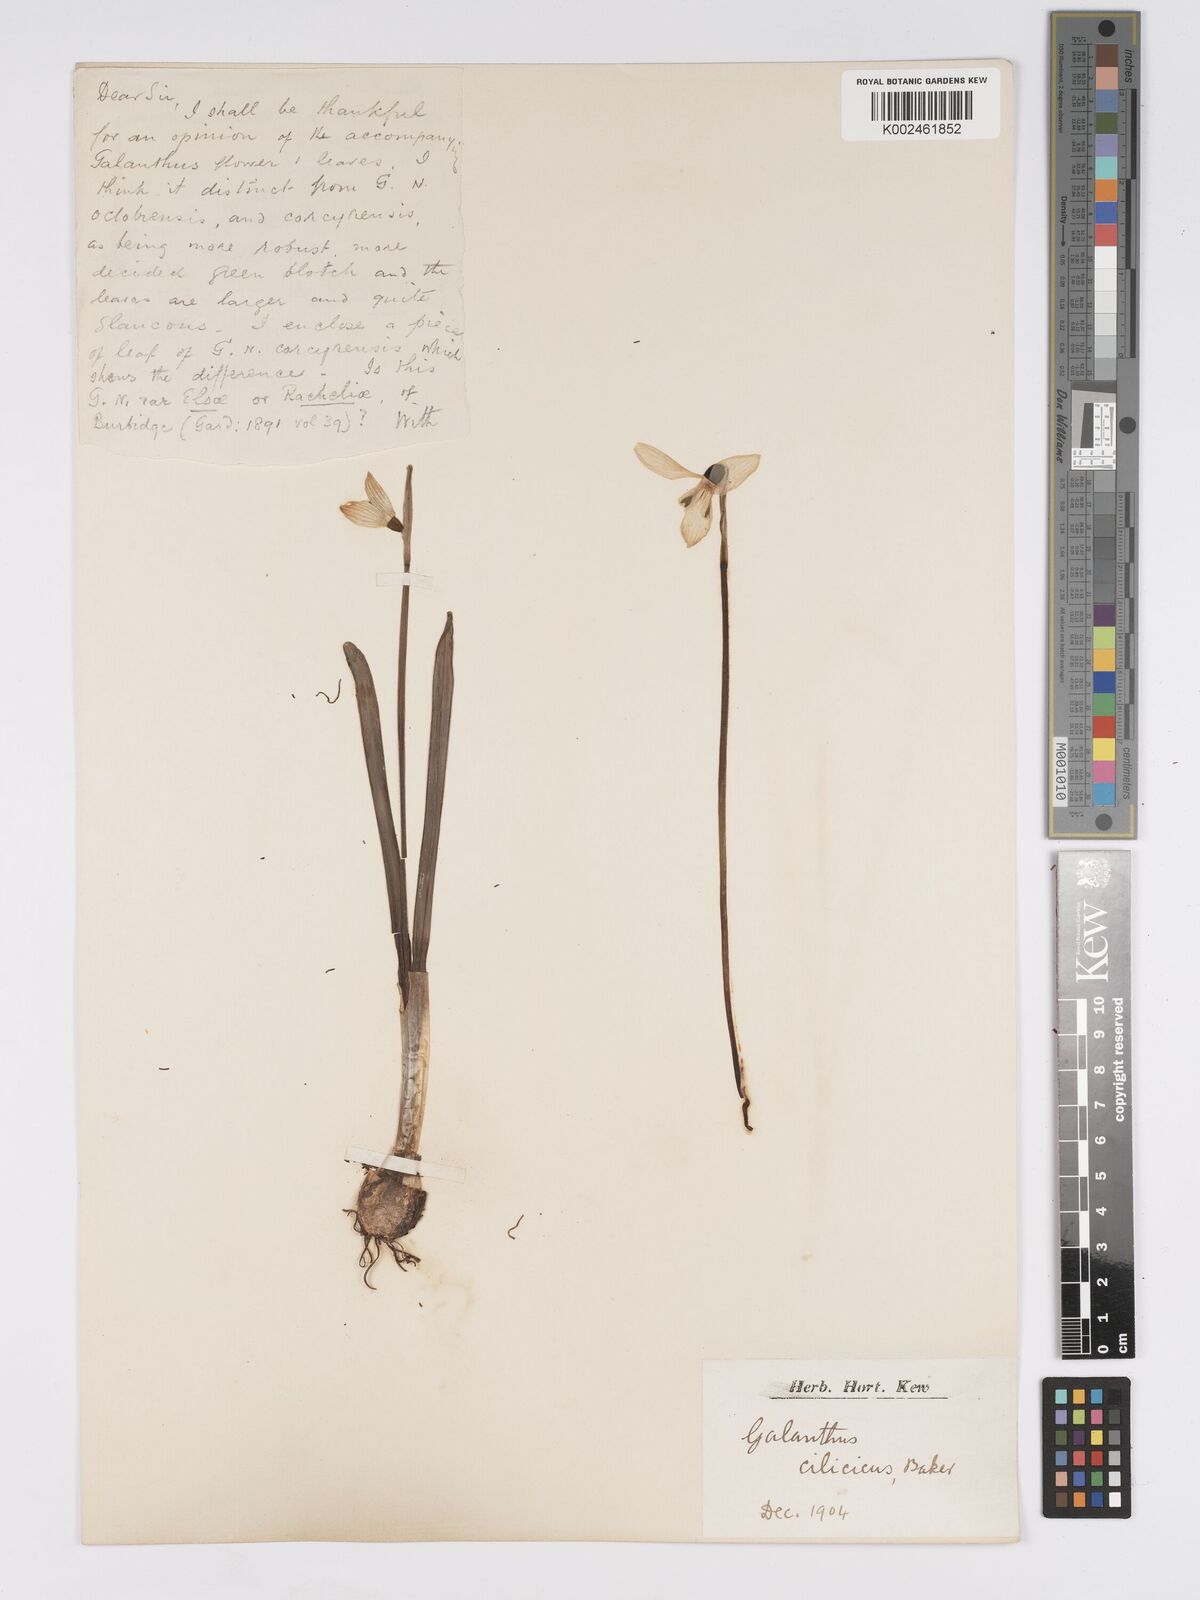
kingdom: Plantae
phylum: Tracheophyta
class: Liliopsida
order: Asparagales
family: Amaryllidaceae
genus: Galanthus
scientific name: Galanthus cilicicus
